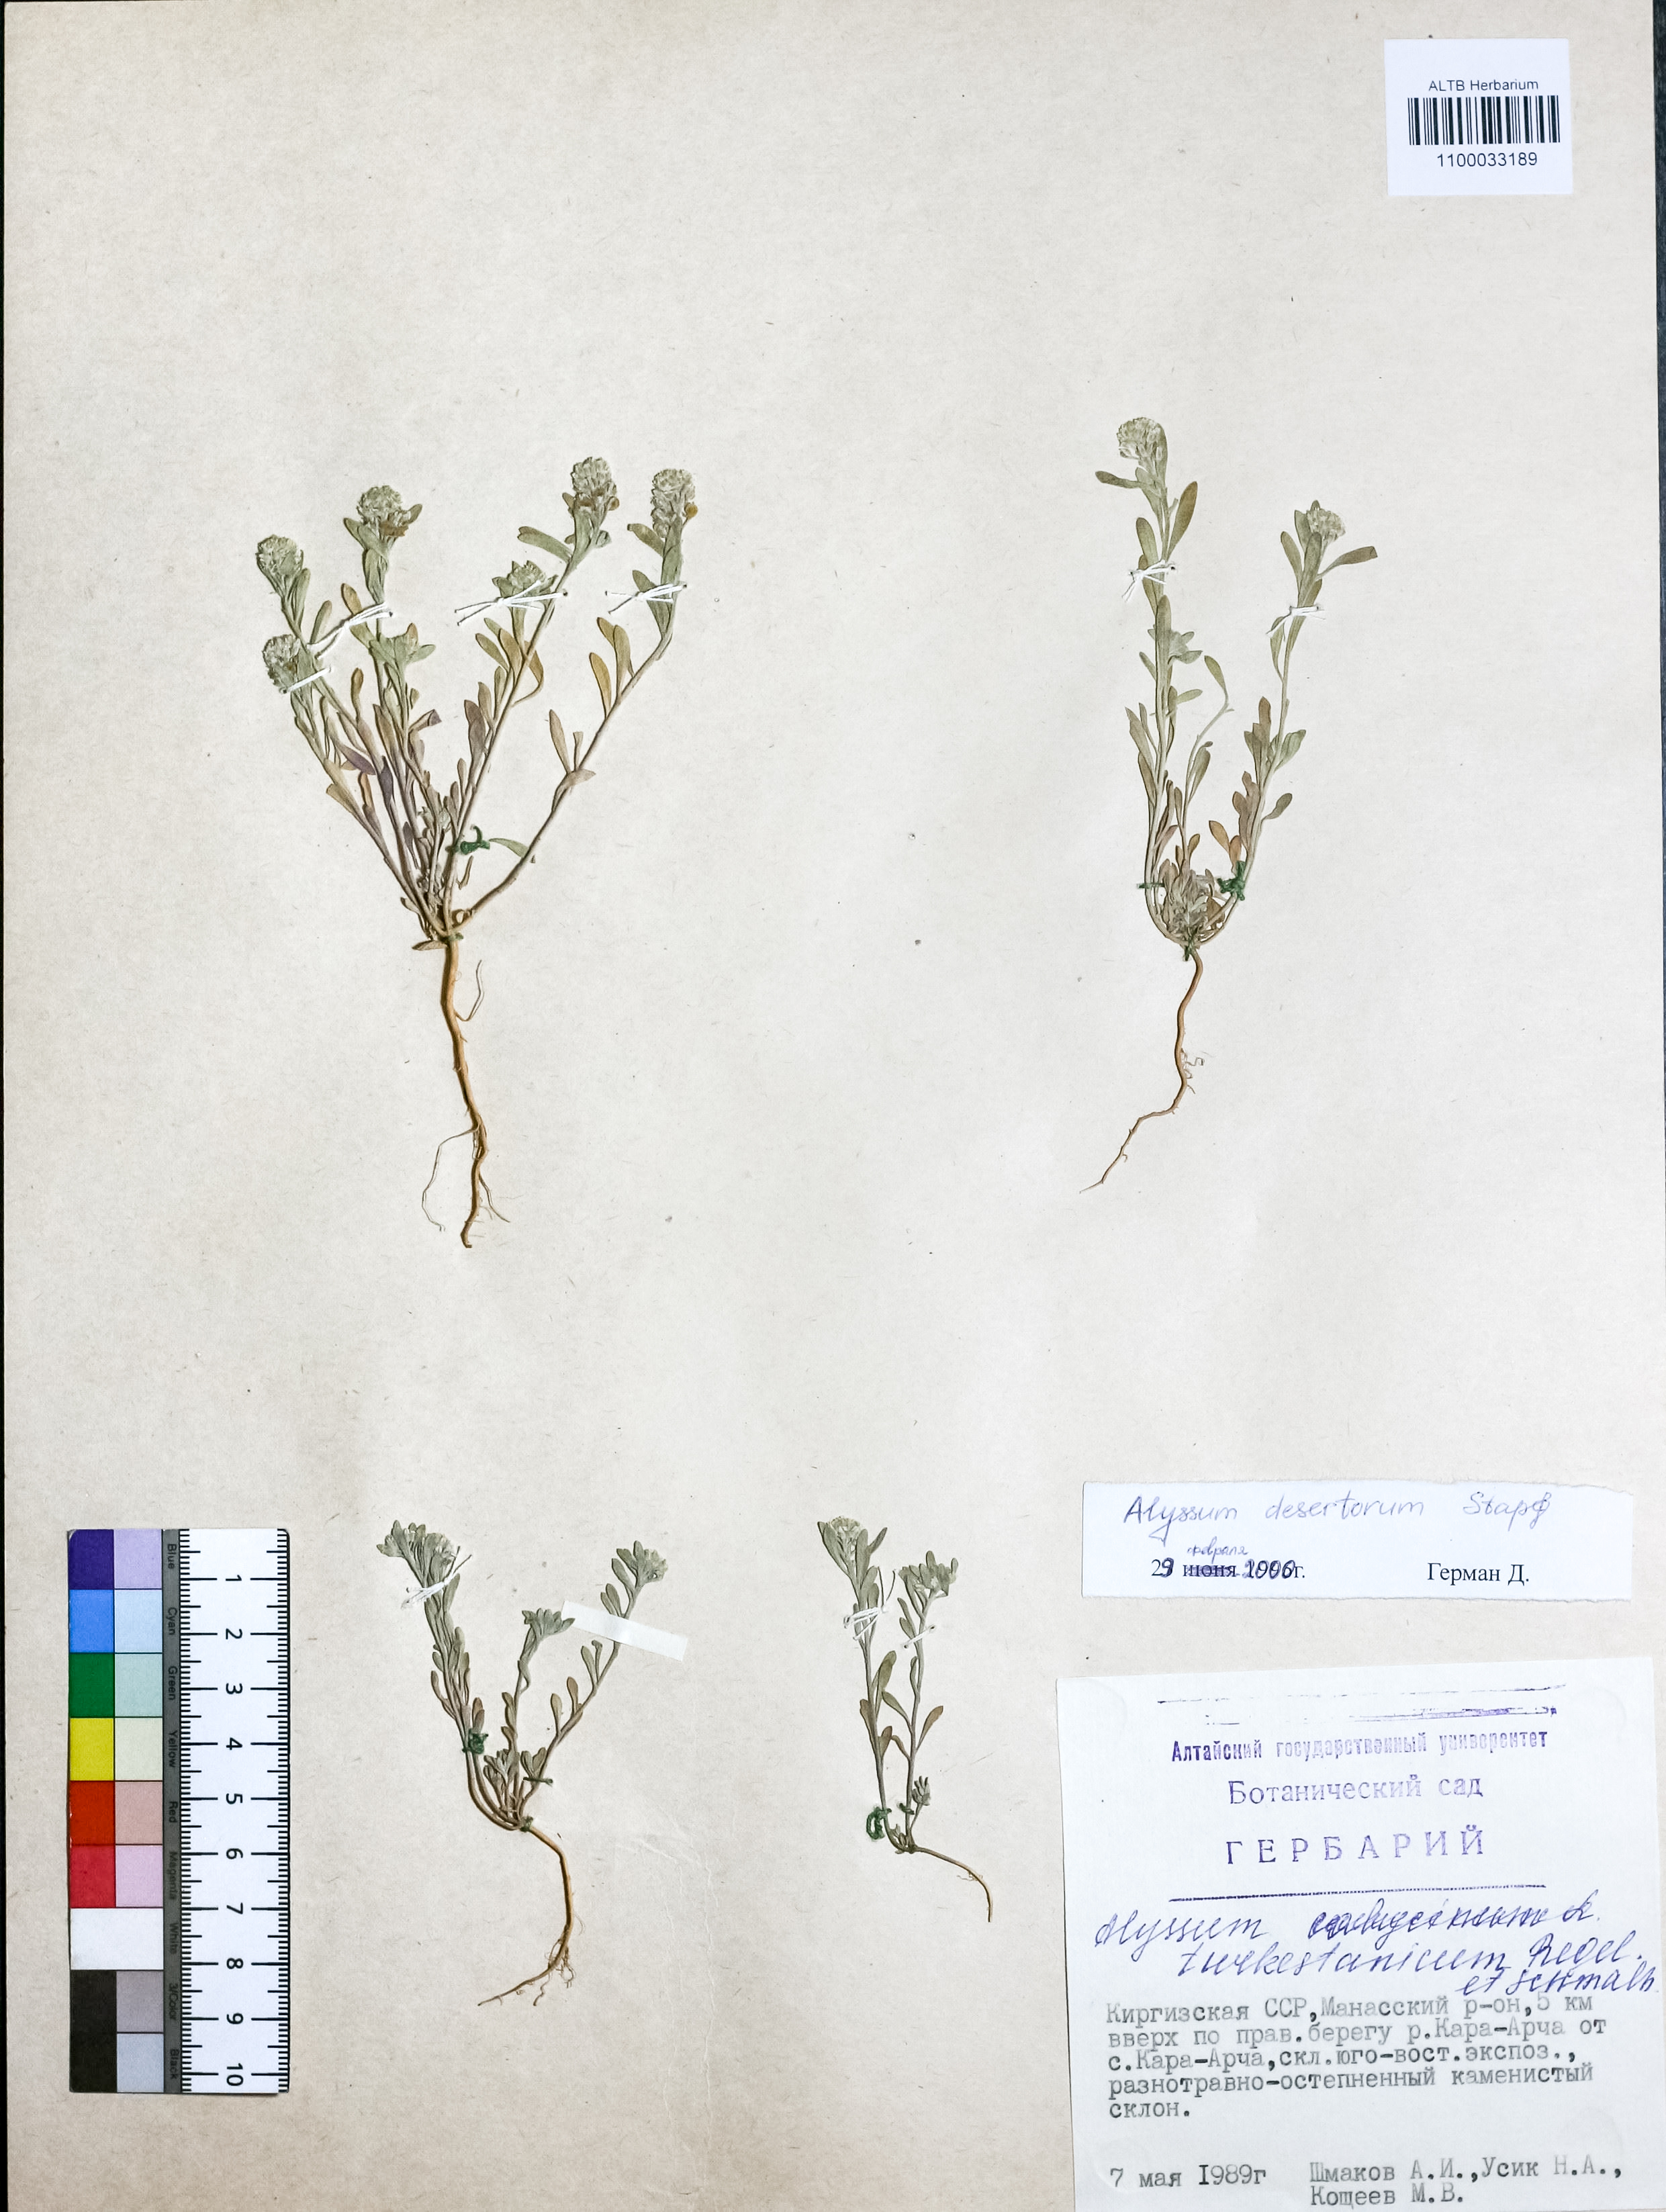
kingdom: Plantae
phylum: Tracheophyta
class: Magnoliopsida
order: Brassicales
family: Brassicaceae
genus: Alyssum
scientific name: Alyssum turkestanicum
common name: Desert alyssum
